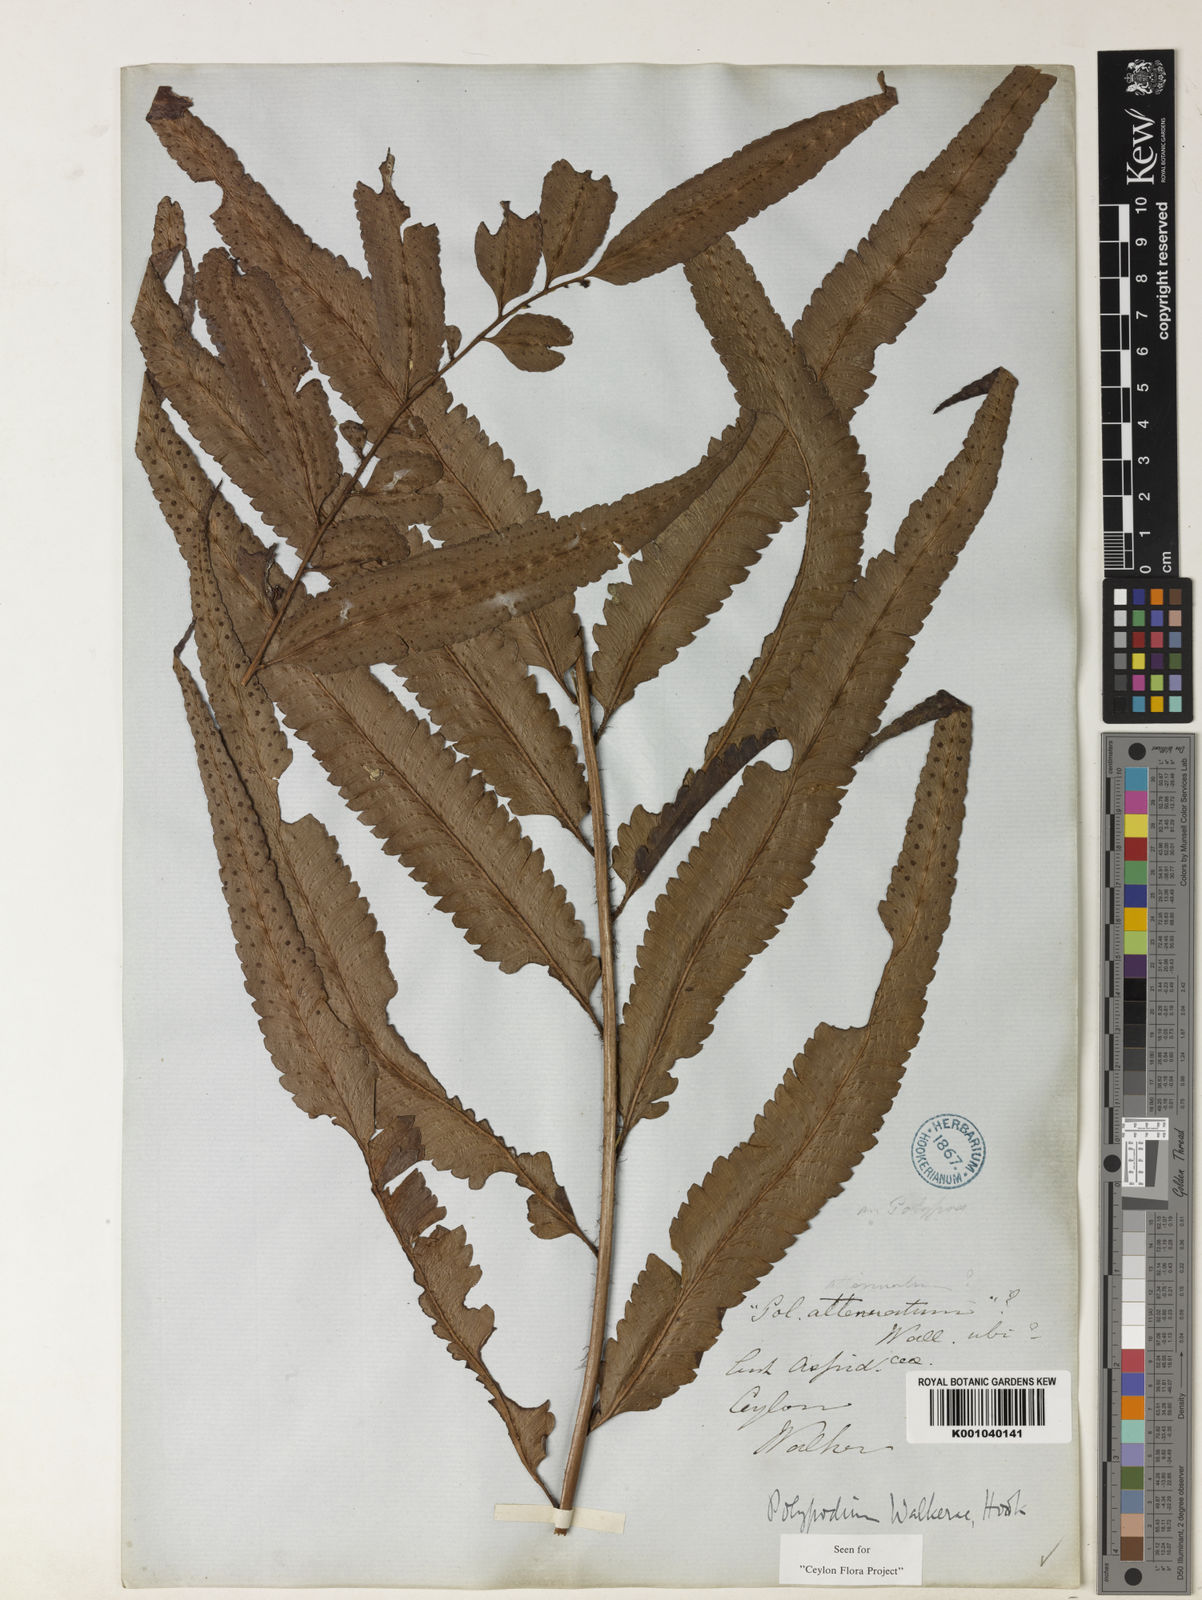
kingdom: Plantae
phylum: Tracheophyta
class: Polypodiopsida
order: Polypodiales
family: Dryopteridaceae
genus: Polystichum
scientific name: Polystichum walkerae
